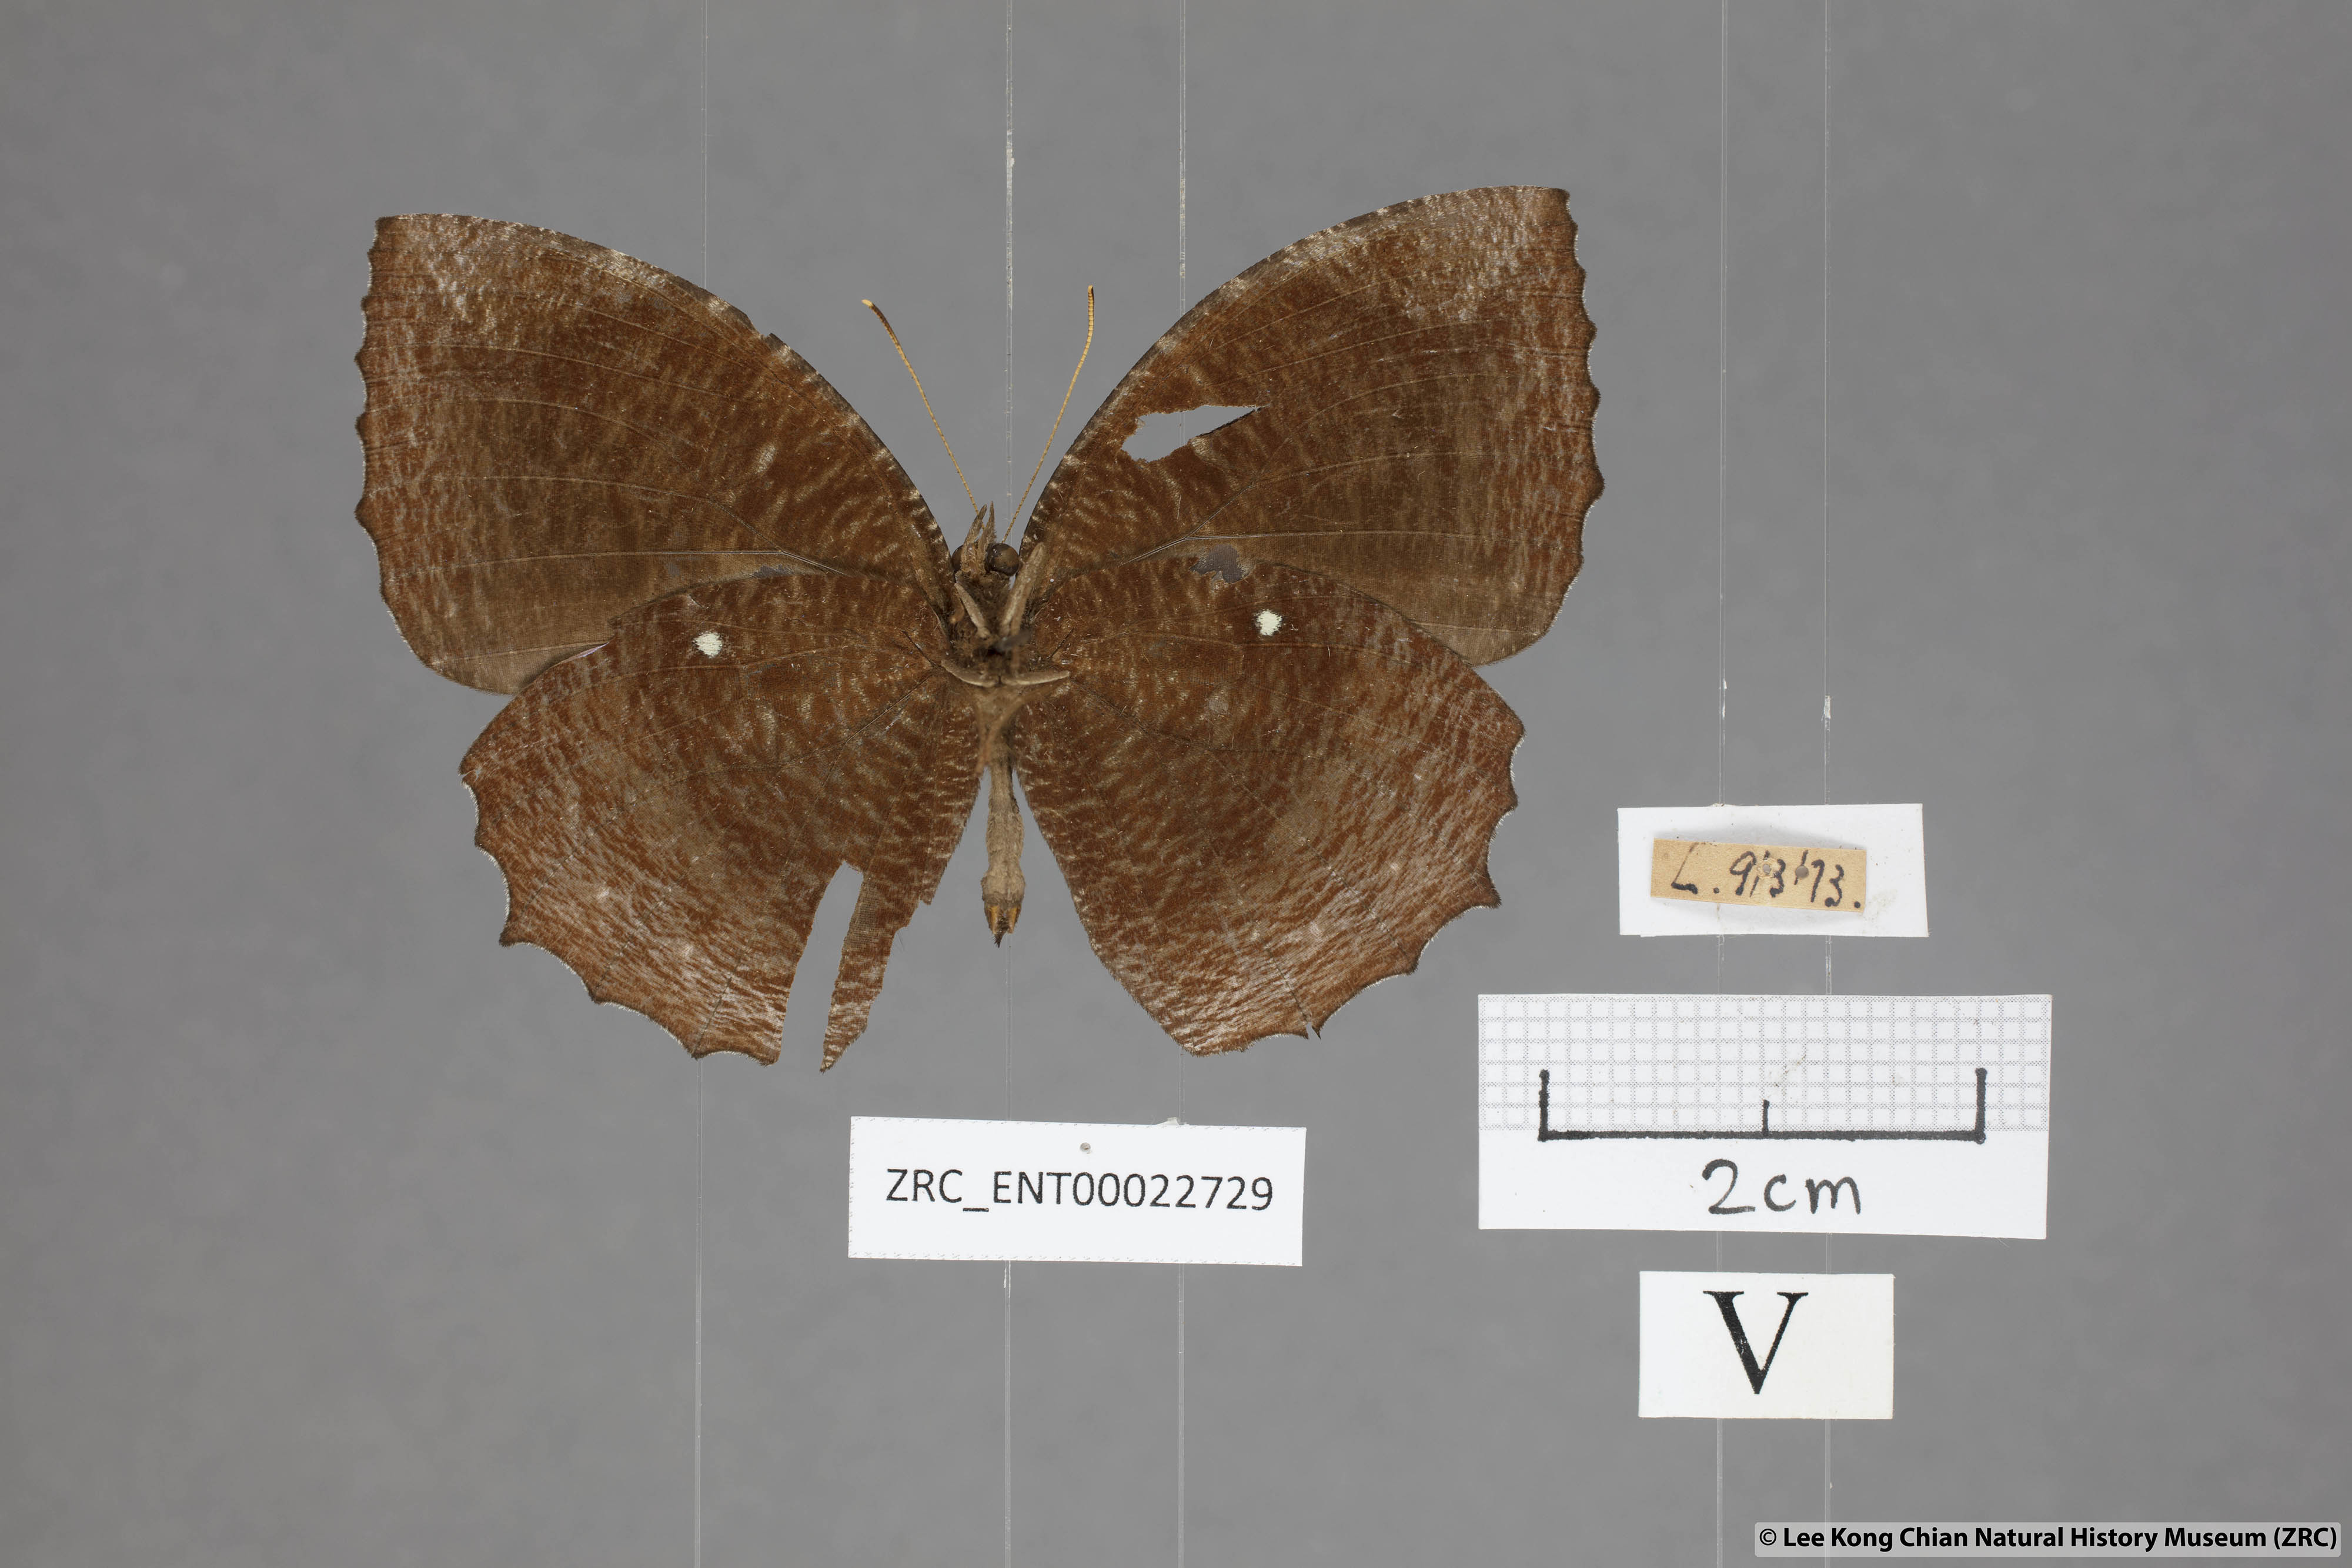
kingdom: Animalia
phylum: Arthropoda
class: Insecta
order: Lepidoptera
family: Nymphalidae
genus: Elymnias
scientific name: Elymnias hypermnestra
